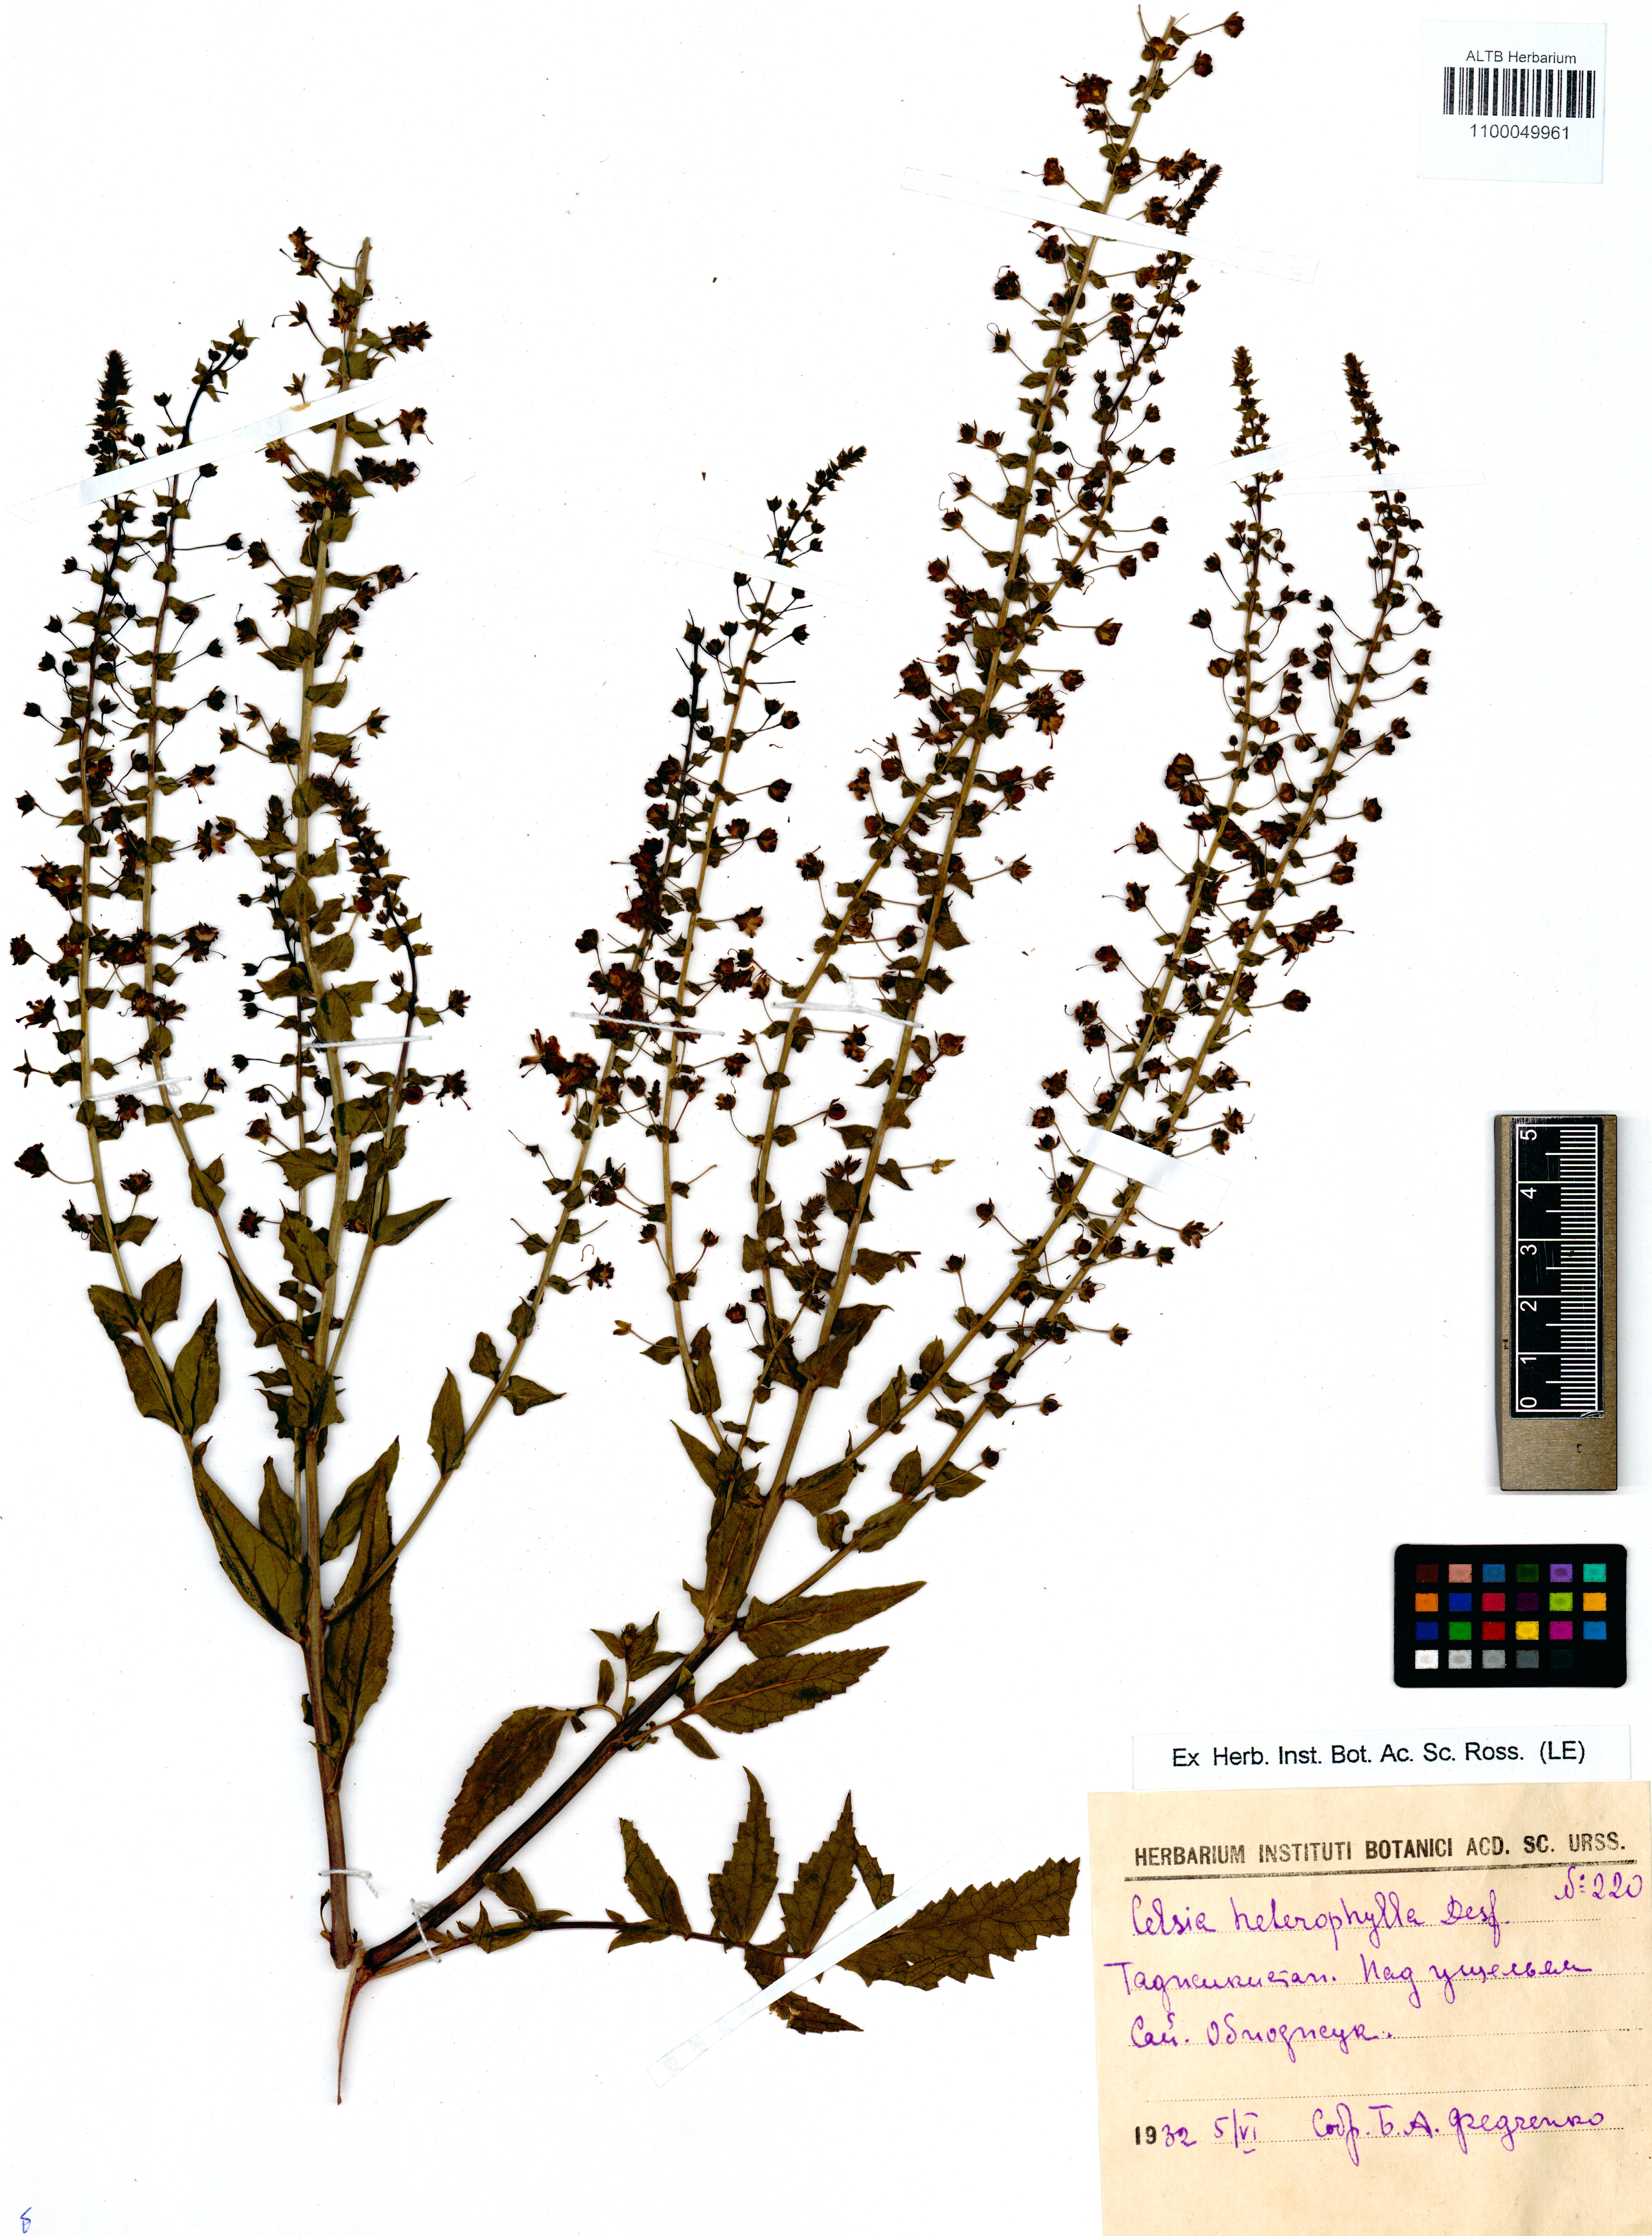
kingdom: Plantae
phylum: Tracheophyta
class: Magnoliopsida
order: Lamiales
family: Scrophulariaceae
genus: Verbascum
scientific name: Verbascum agrimoniifolium
